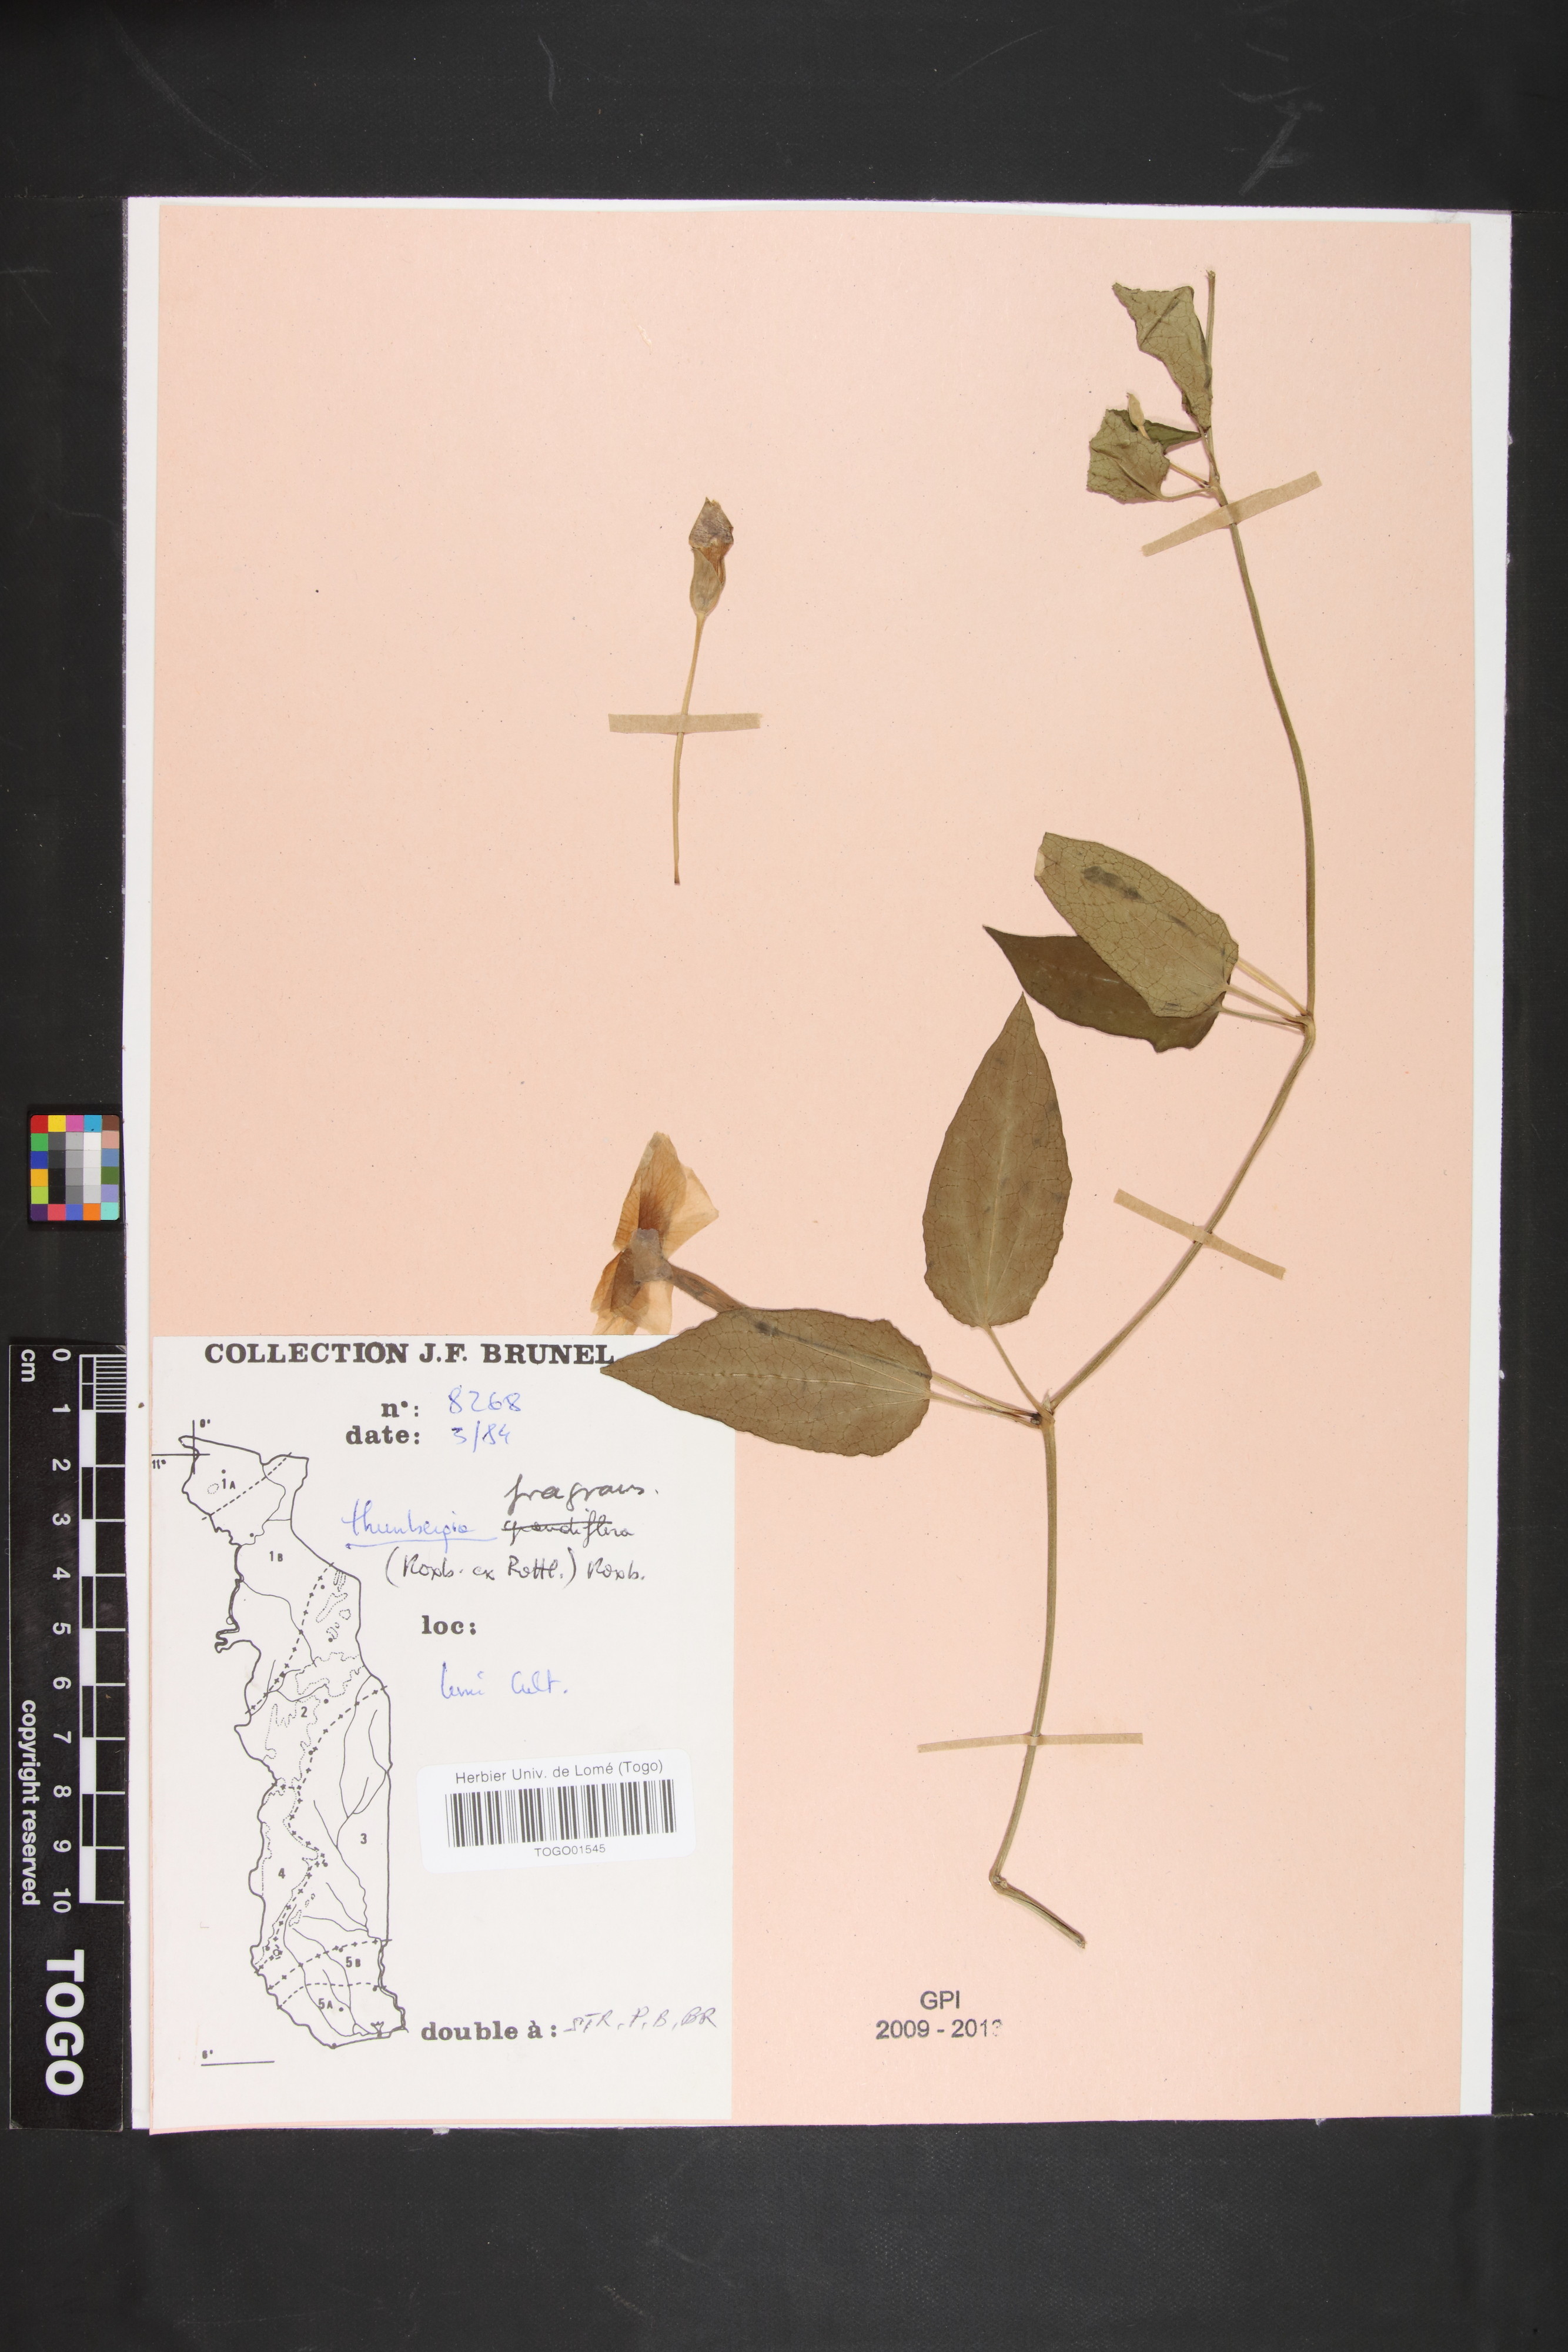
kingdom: Plantae
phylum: Tracheophyta
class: Magnoliopsida
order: Lamiales
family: Acanthaceae
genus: Thunbergia
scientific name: Thunbergia fragrans
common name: Whitelady
